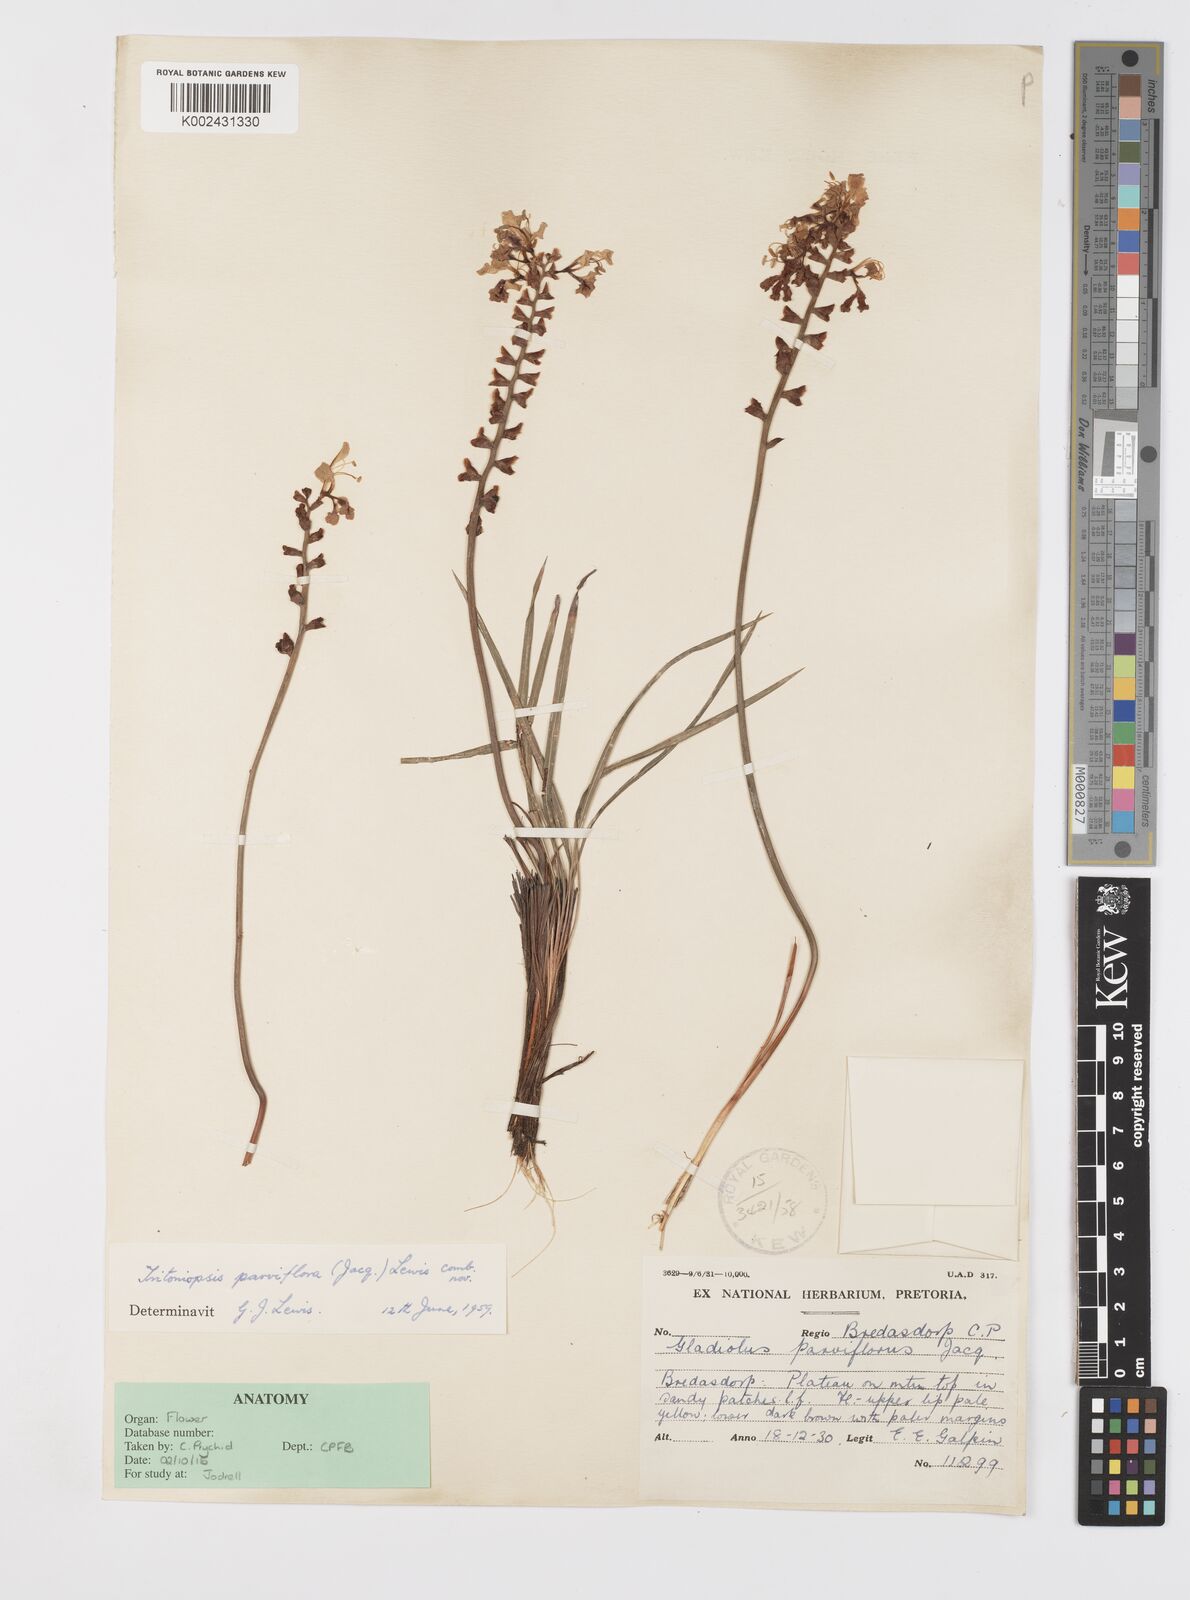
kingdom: Plantae
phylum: Tracheophyta
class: Liliopsida
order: Asparagales
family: Iridaceae
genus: Tritoniopsis
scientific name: Tritoniopsis parviflora
